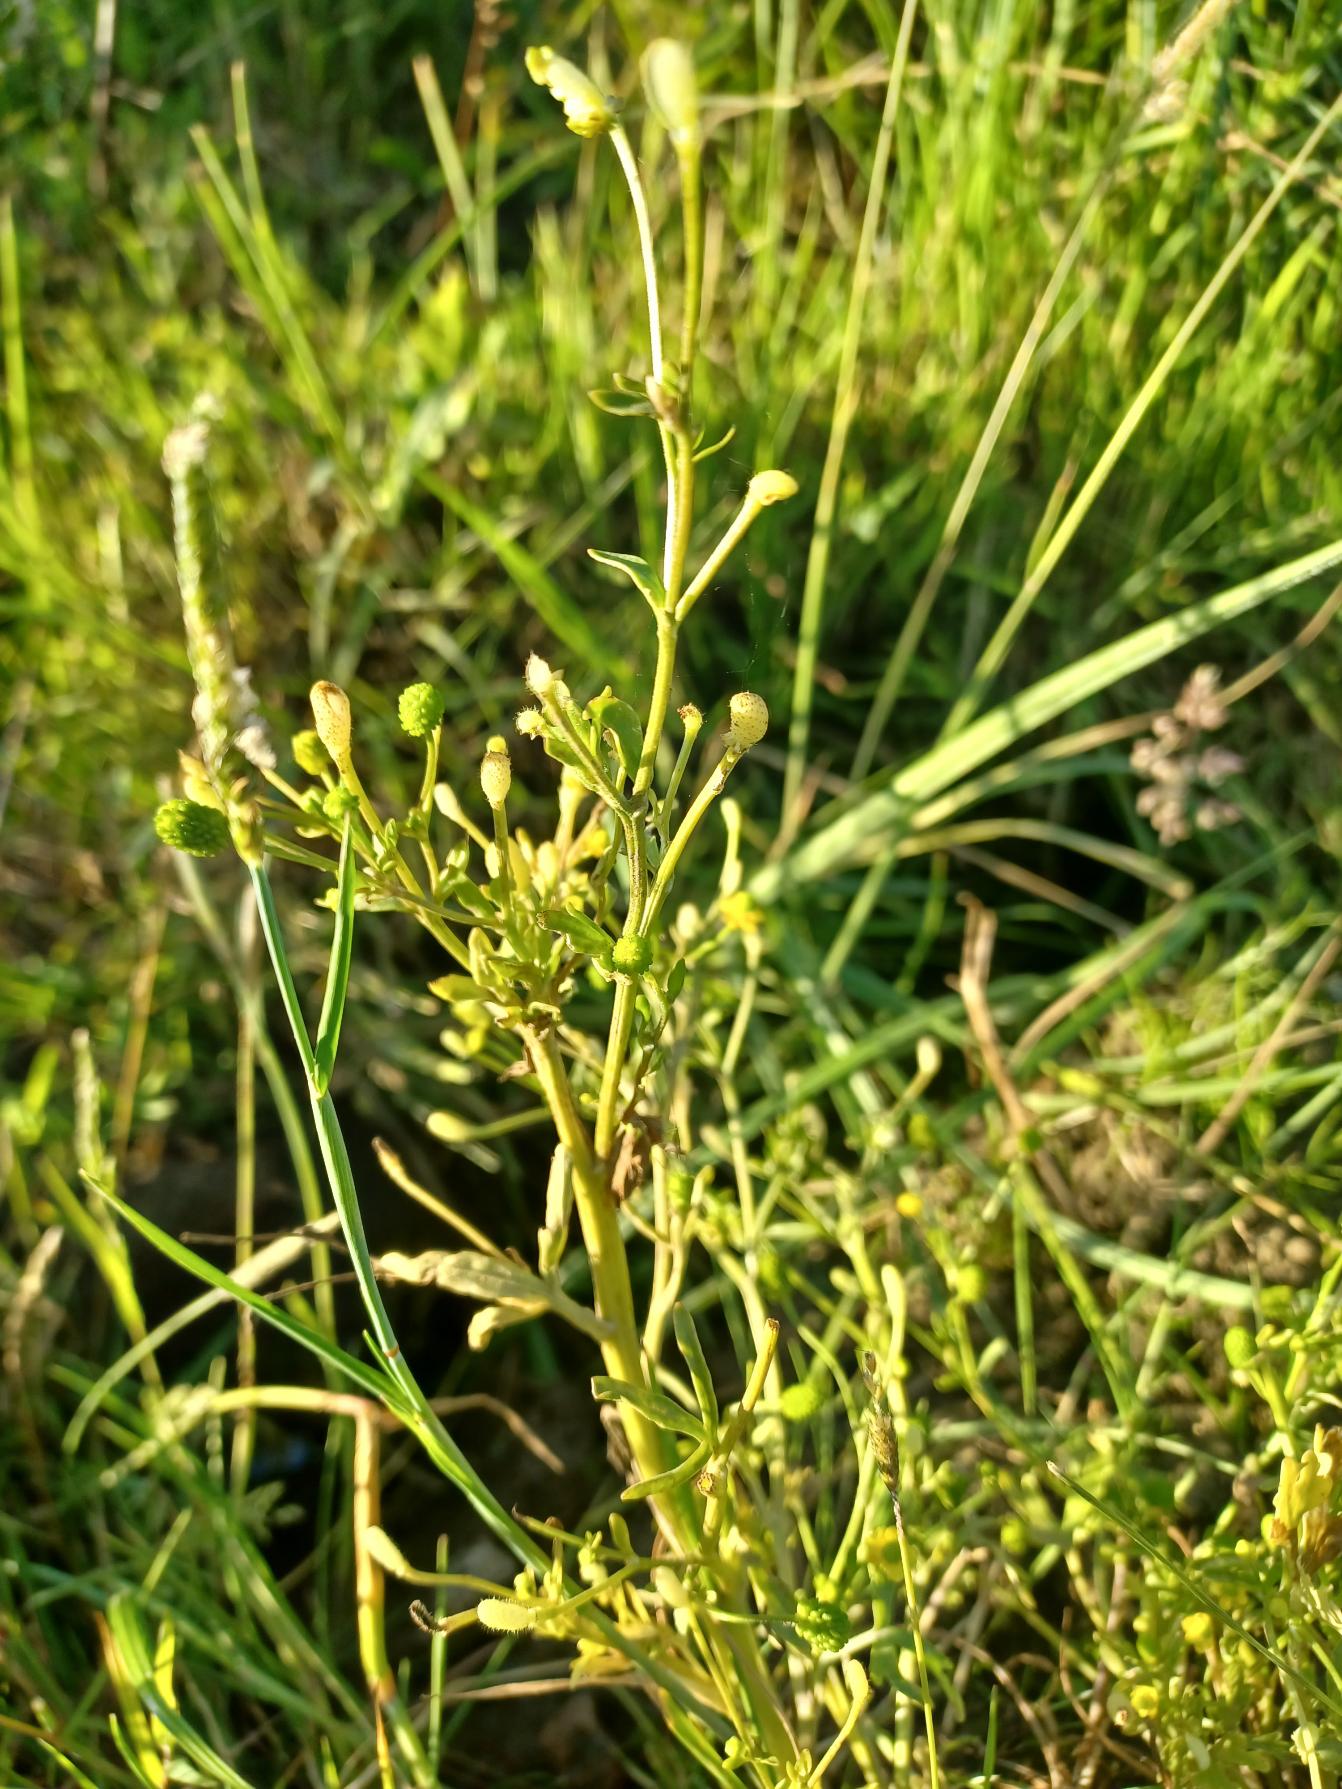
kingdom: Plantae
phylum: Tracheophyta
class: Magnoliopsida
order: Ranunculales
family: Ranunculaceae
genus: Ranunculus
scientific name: Ranunculus sceleratus
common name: Tigger-ranunkel
